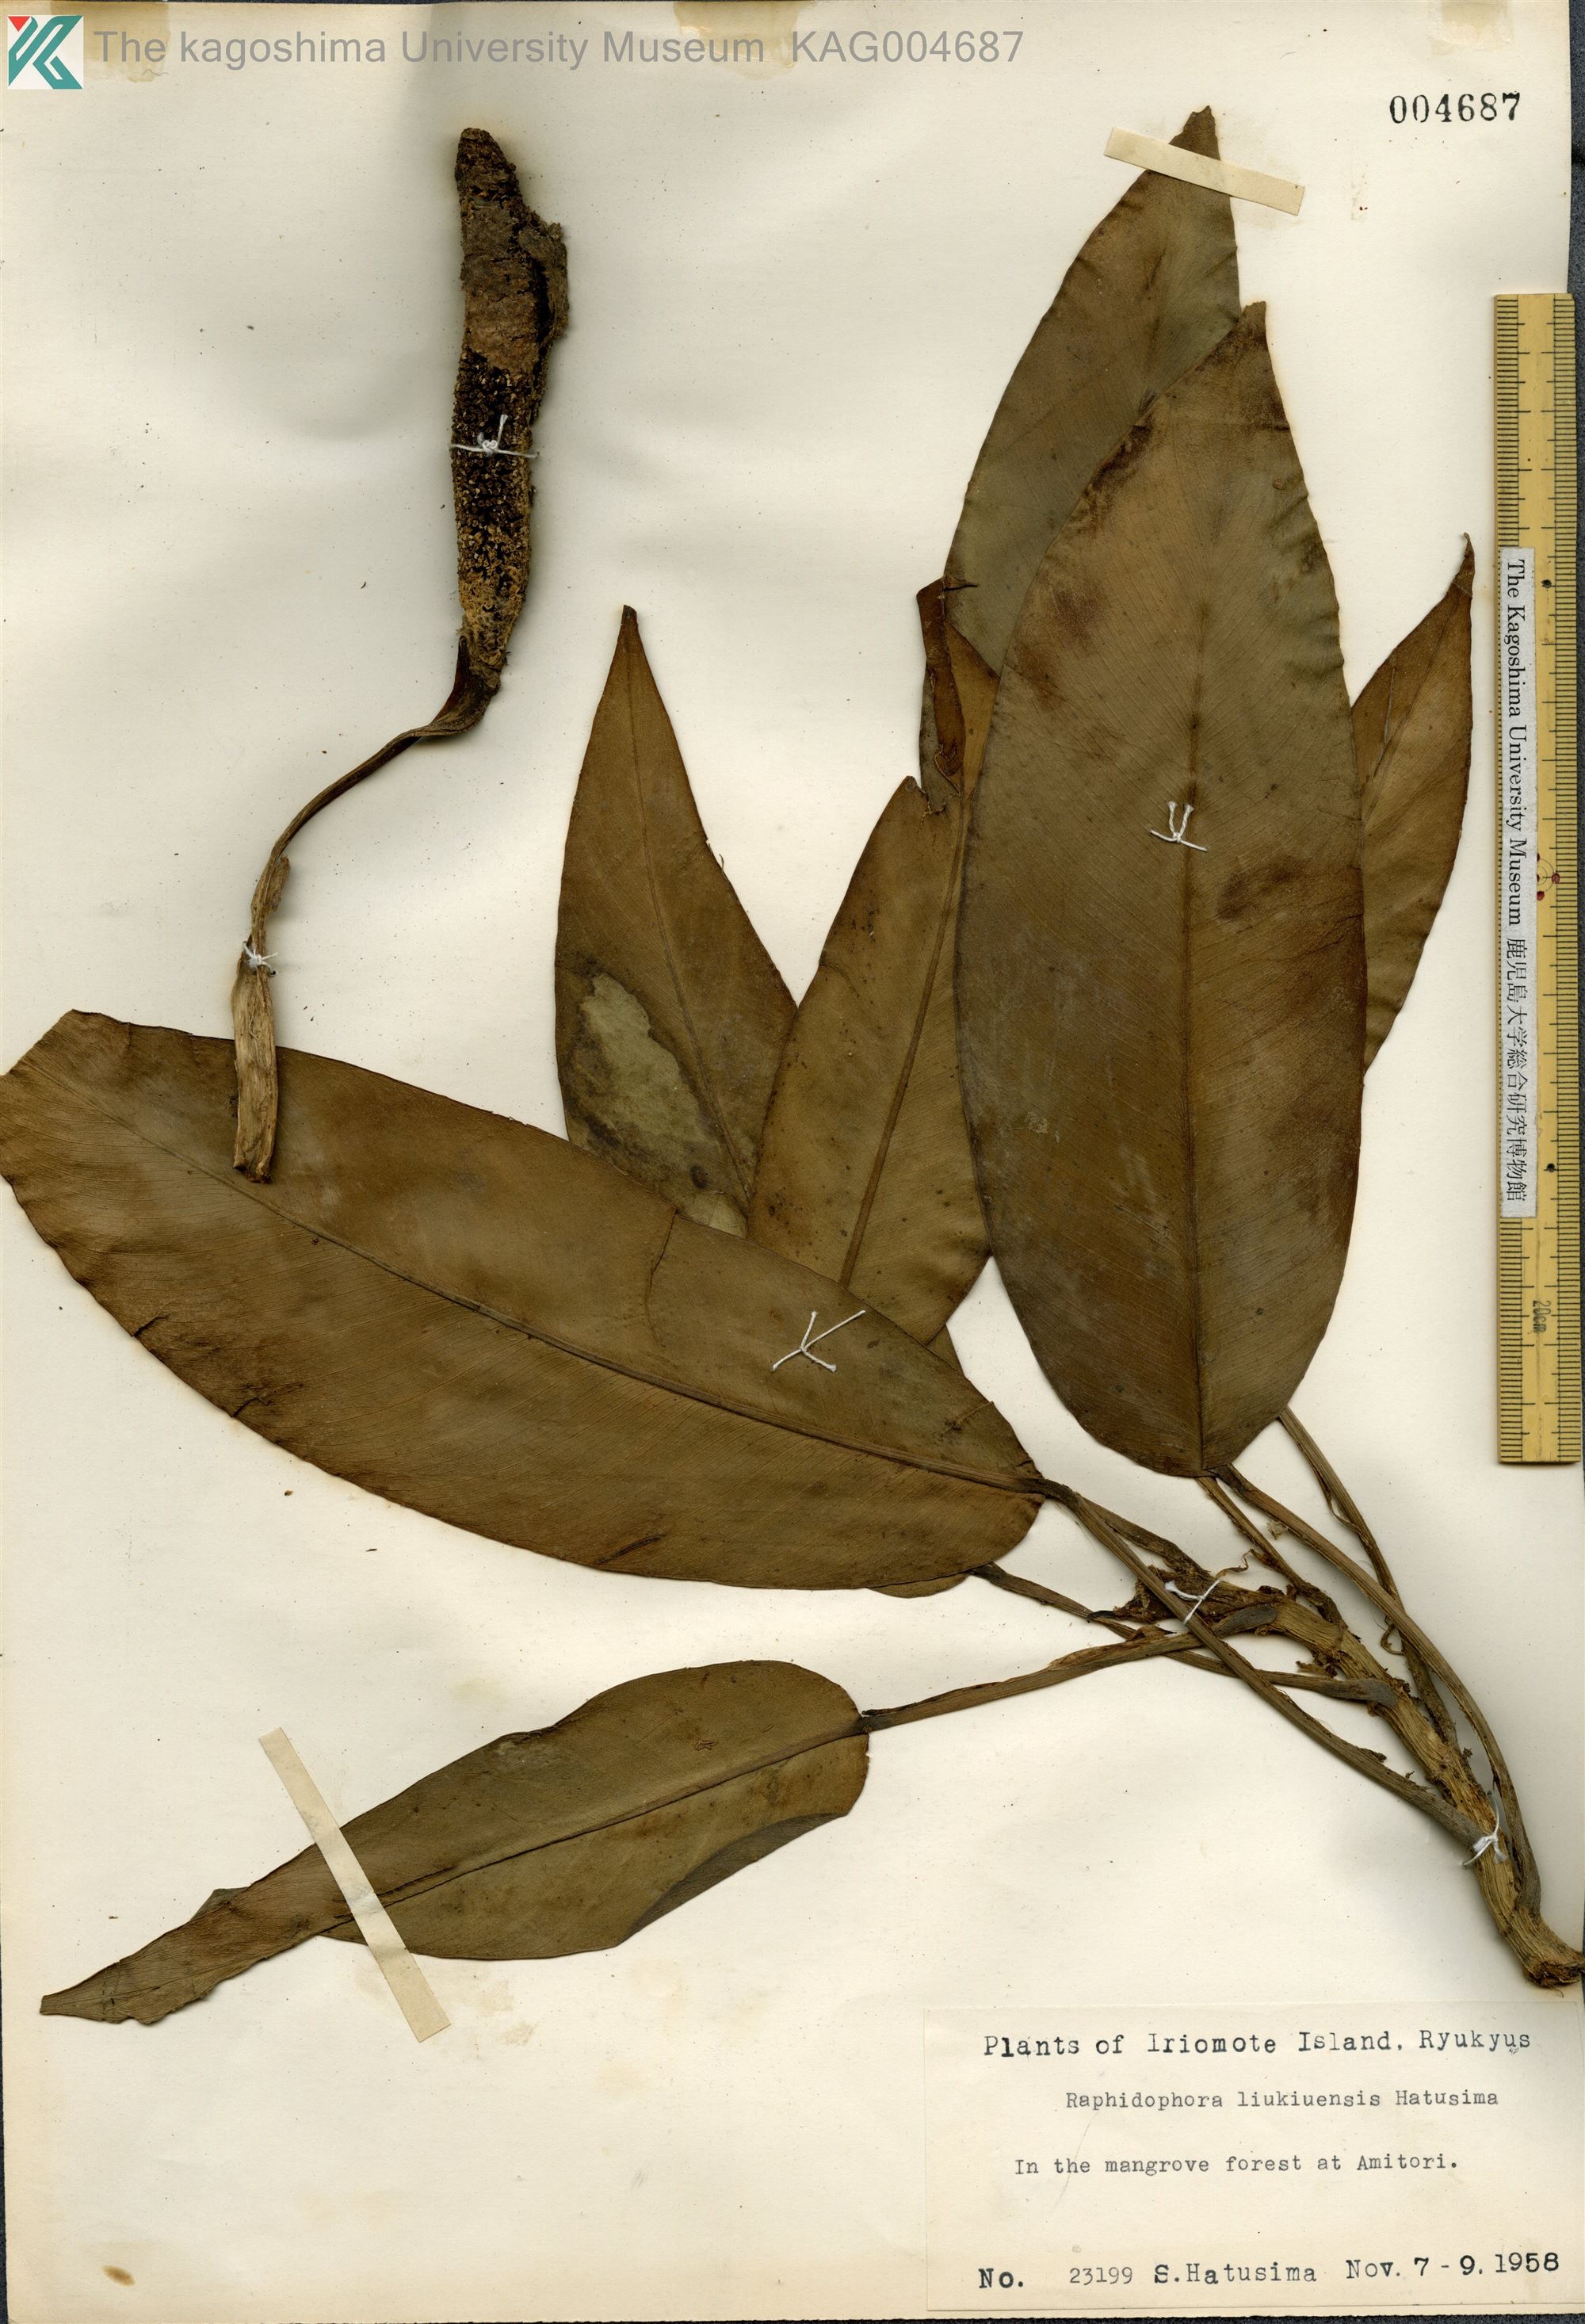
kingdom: Plantae
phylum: Tracheophyta
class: Liliopsida
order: Alismatales
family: Araceae
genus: Rhaphidophora
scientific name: Rhaphidophora liukiuensis
